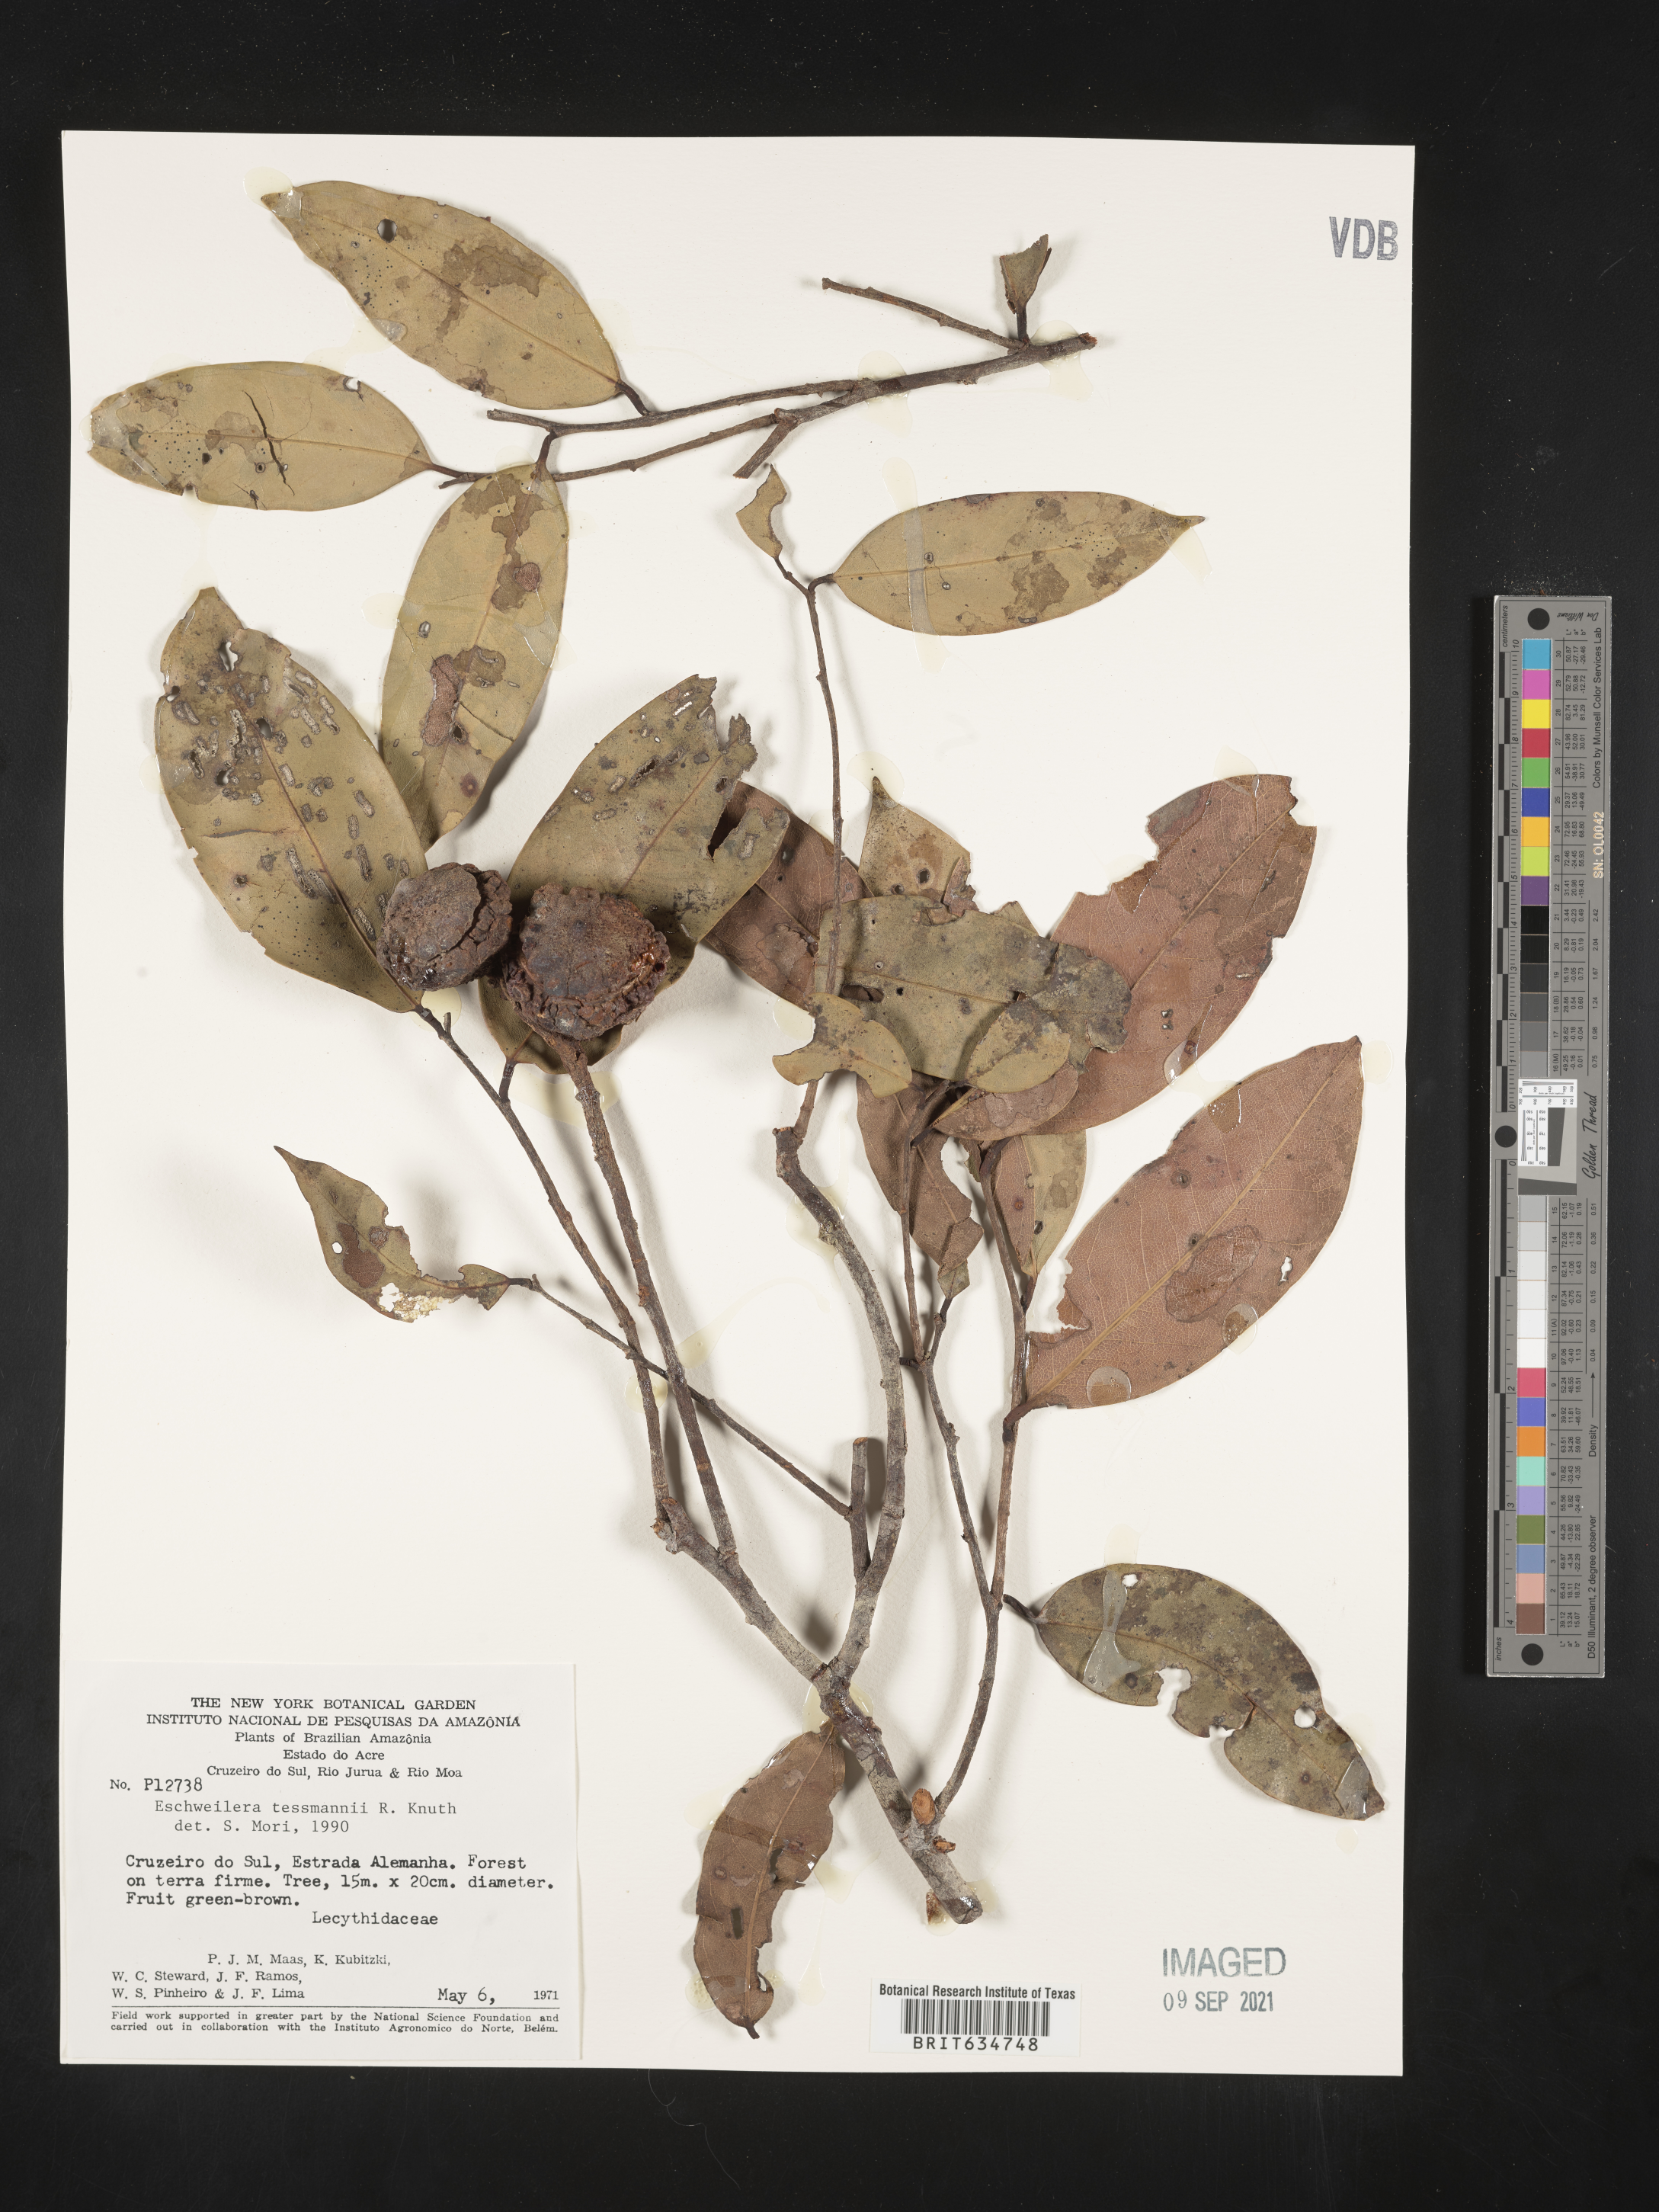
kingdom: Plantae
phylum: Tracheophyta
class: Magnoliopsida
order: Ericales
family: Lecythidaceae
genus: Eschweilera
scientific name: Eschweilera
